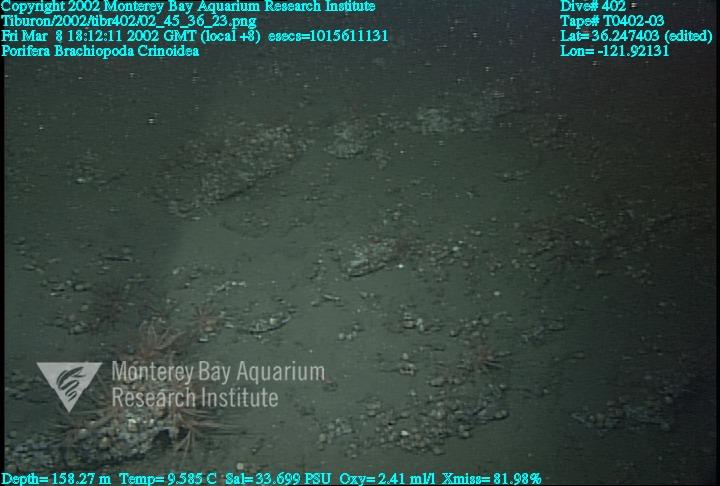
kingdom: Animalia
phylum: Porifera
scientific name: Porifera
